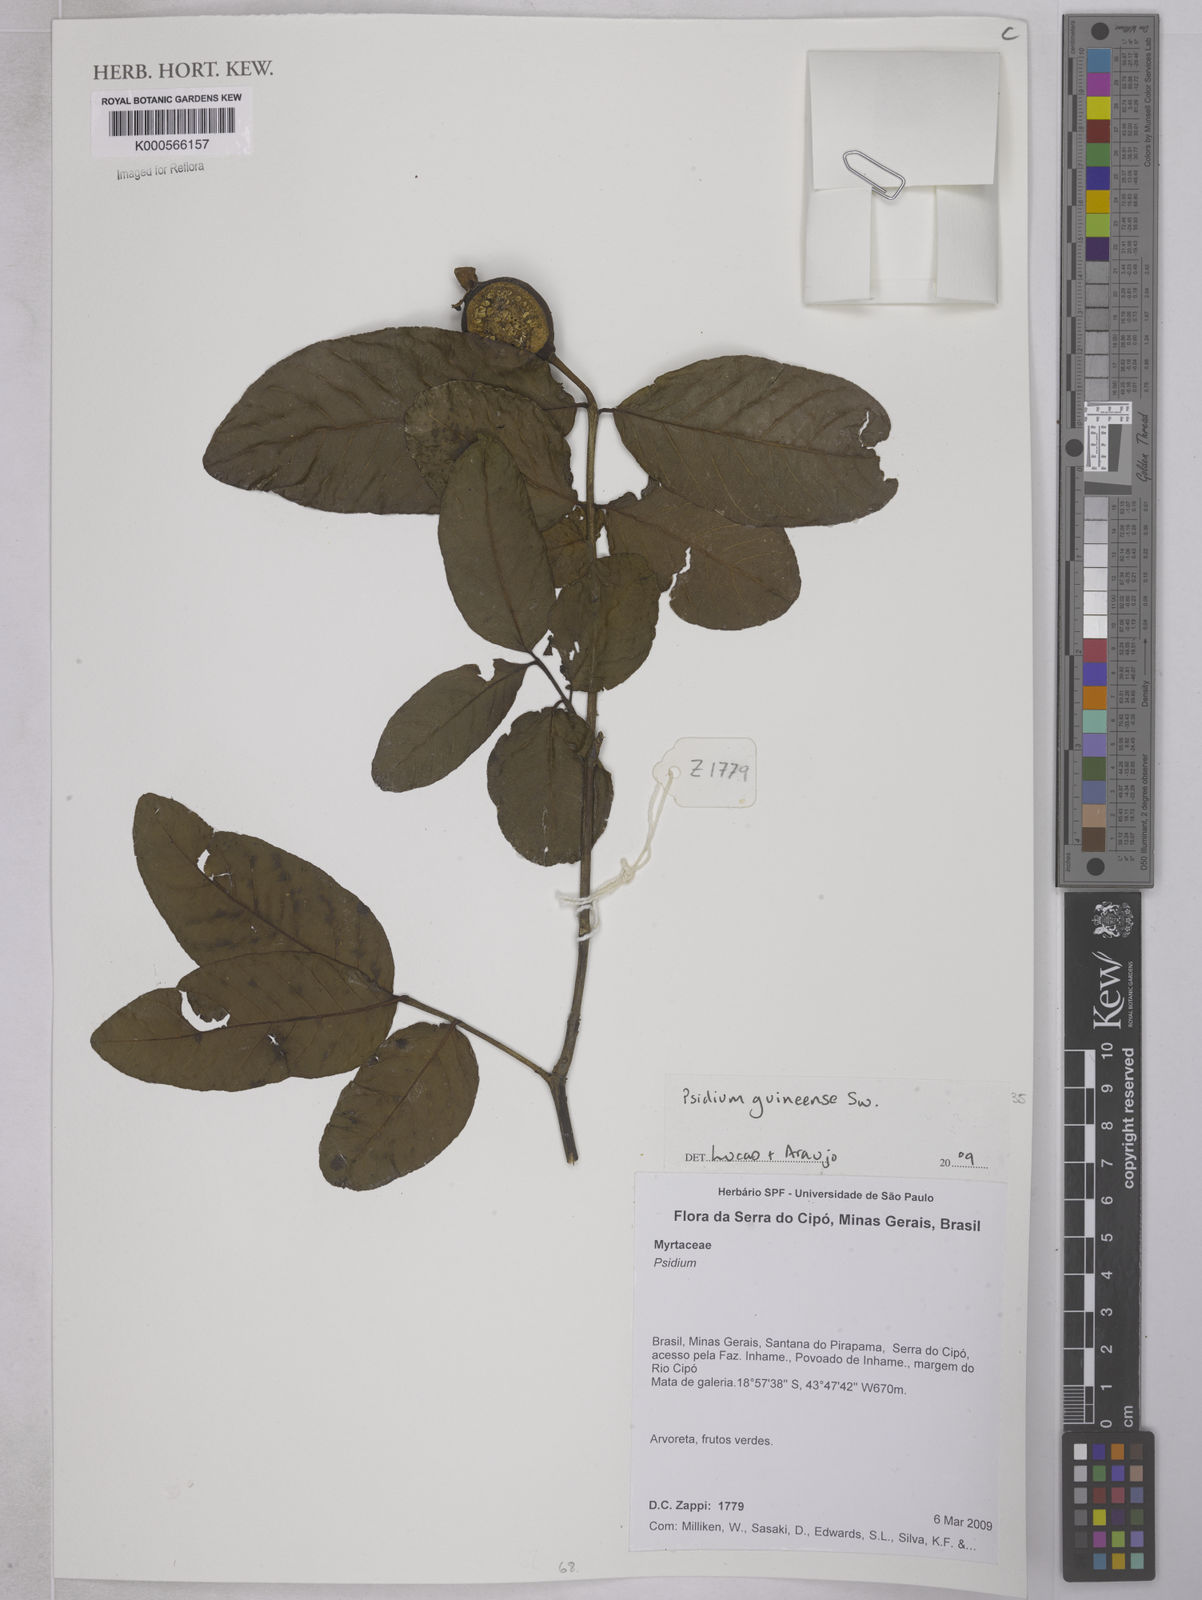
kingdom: Plantae
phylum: Tracheophyta
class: Magnoliopsida
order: Myrtales
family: Myrtaceae
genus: Psidium
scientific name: Psidium
